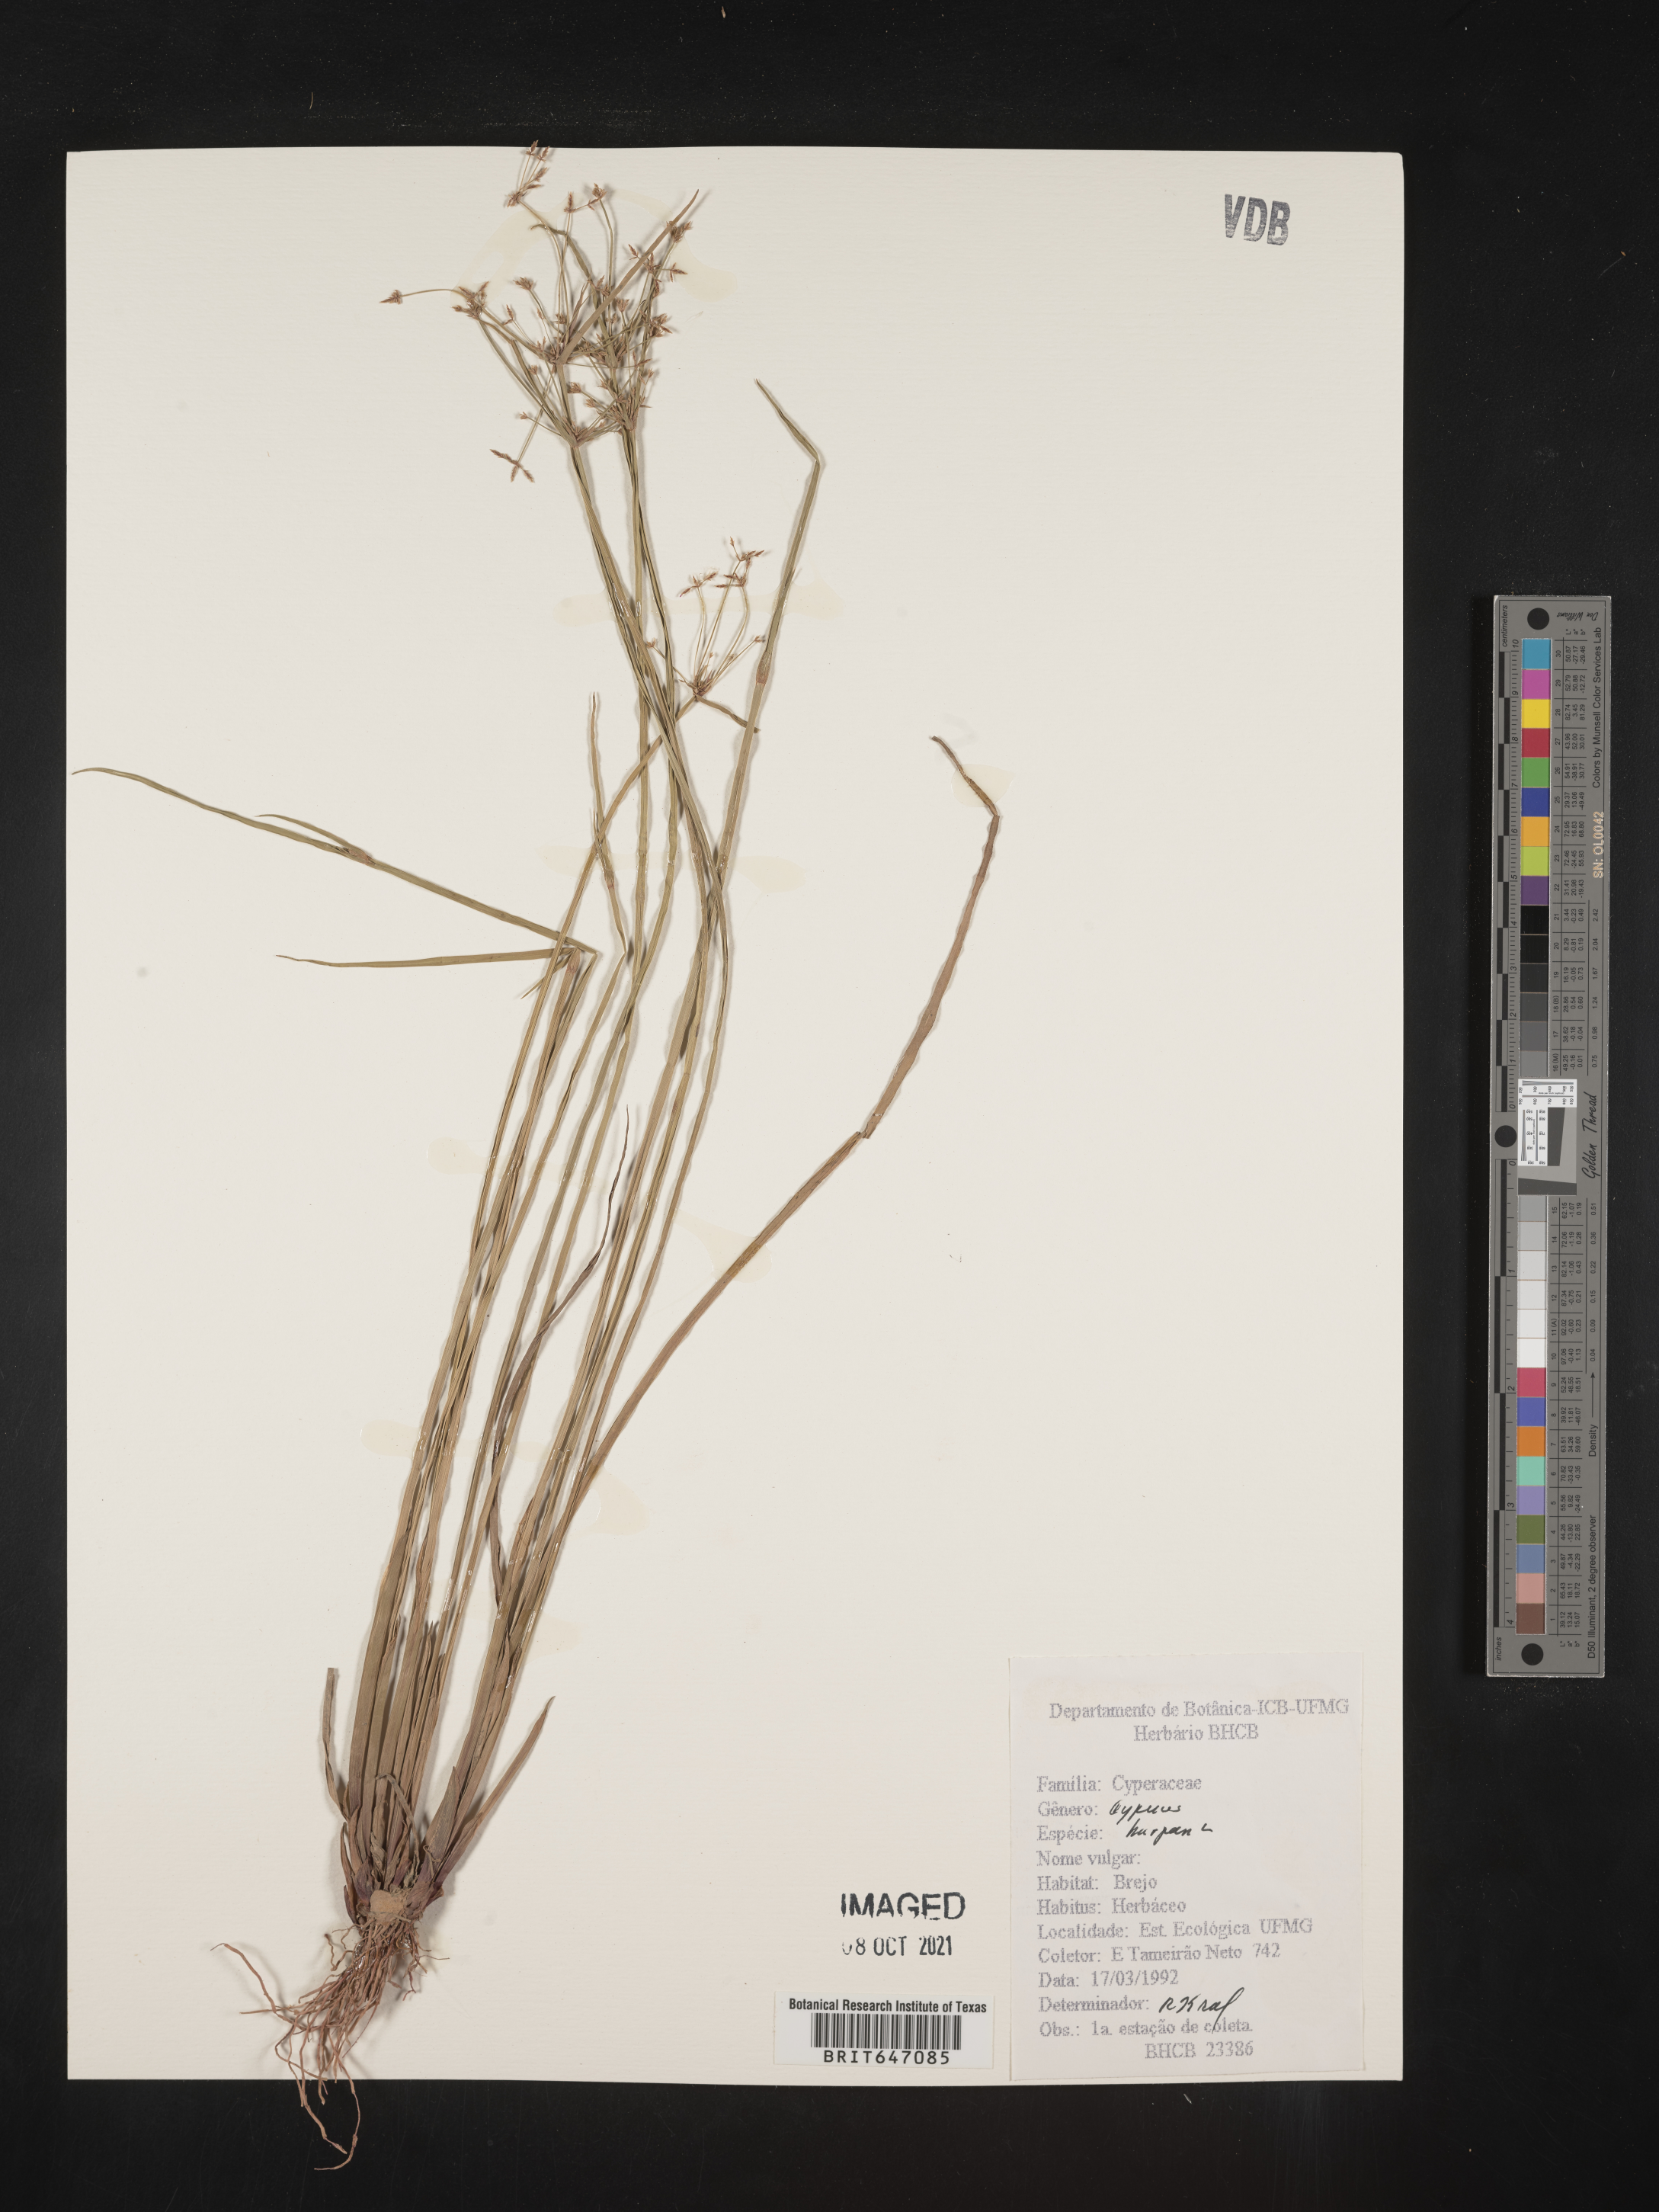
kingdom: Plantae
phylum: Tracheophyta
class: Liliopsida
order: Poales
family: Cyperaceae
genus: Cyperus
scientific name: Cyperus haspan
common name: Haspan flatsedge
